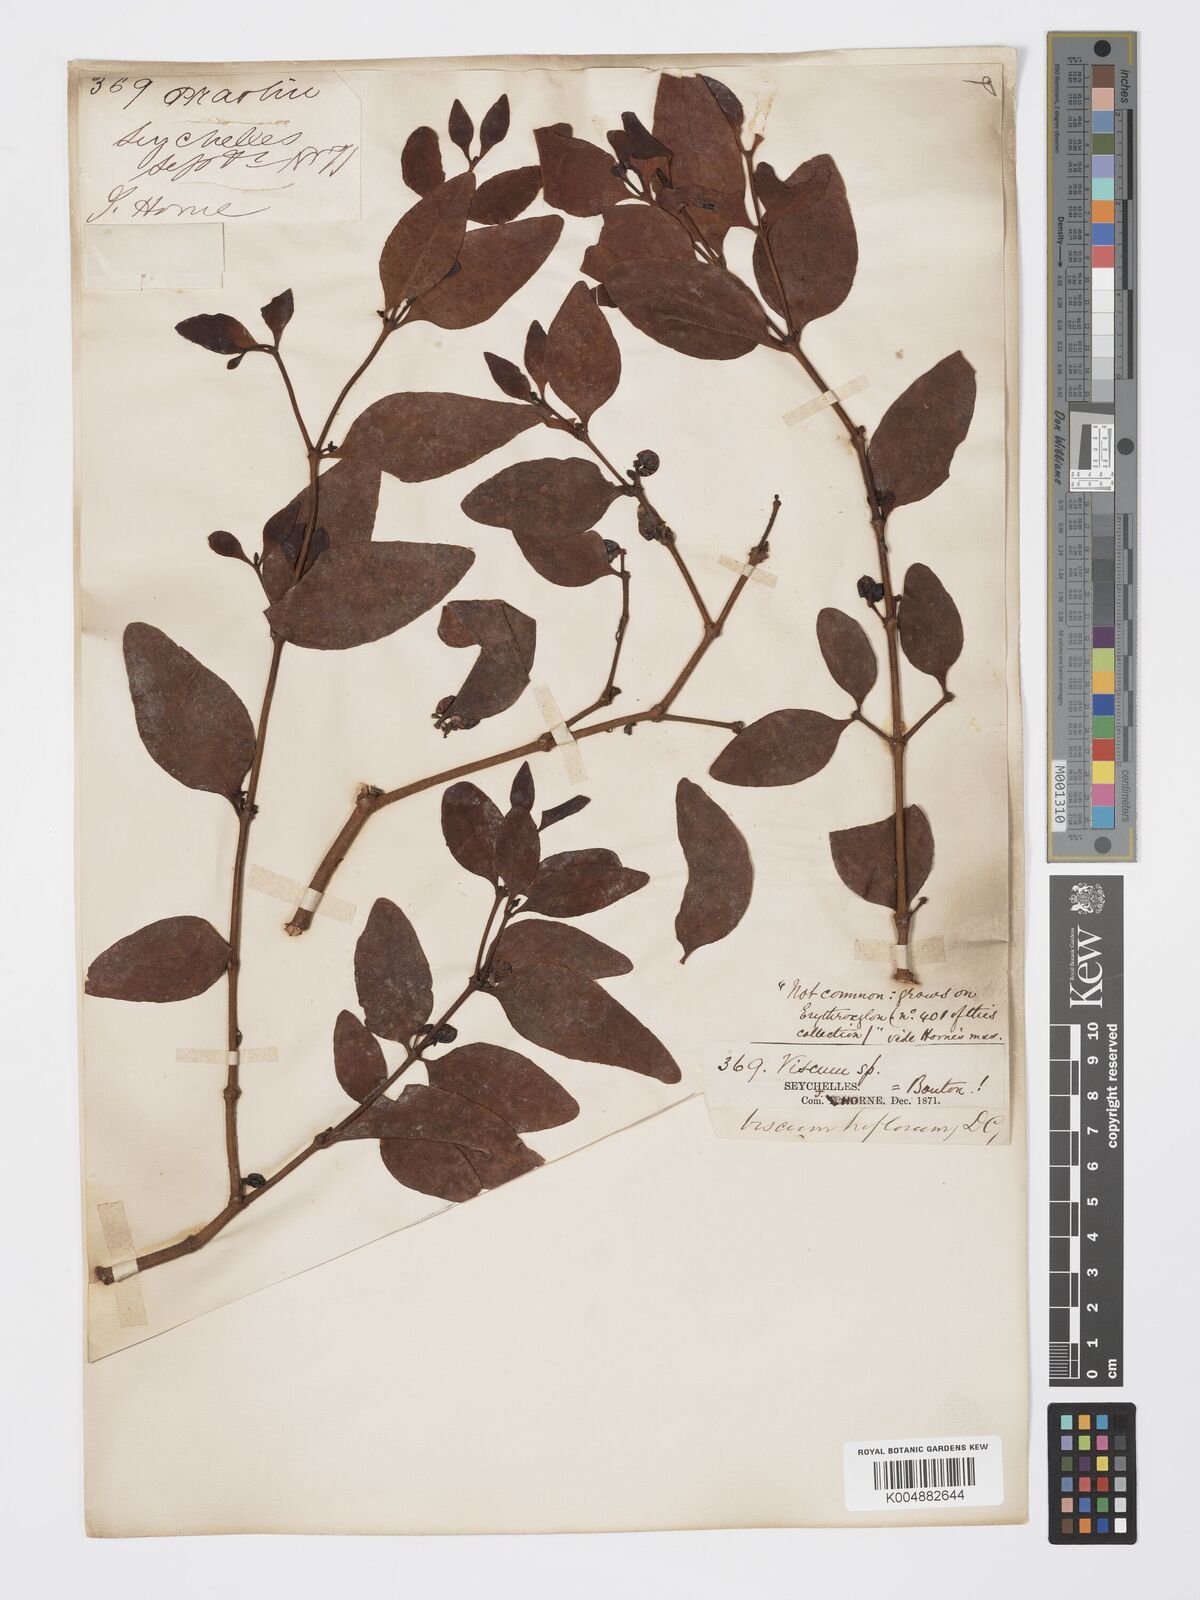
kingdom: Plantae
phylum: Tracheophyta
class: Magnoliopsida
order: Santalales
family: Viscaceae
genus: Viscum
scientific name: Viscum triflorum
